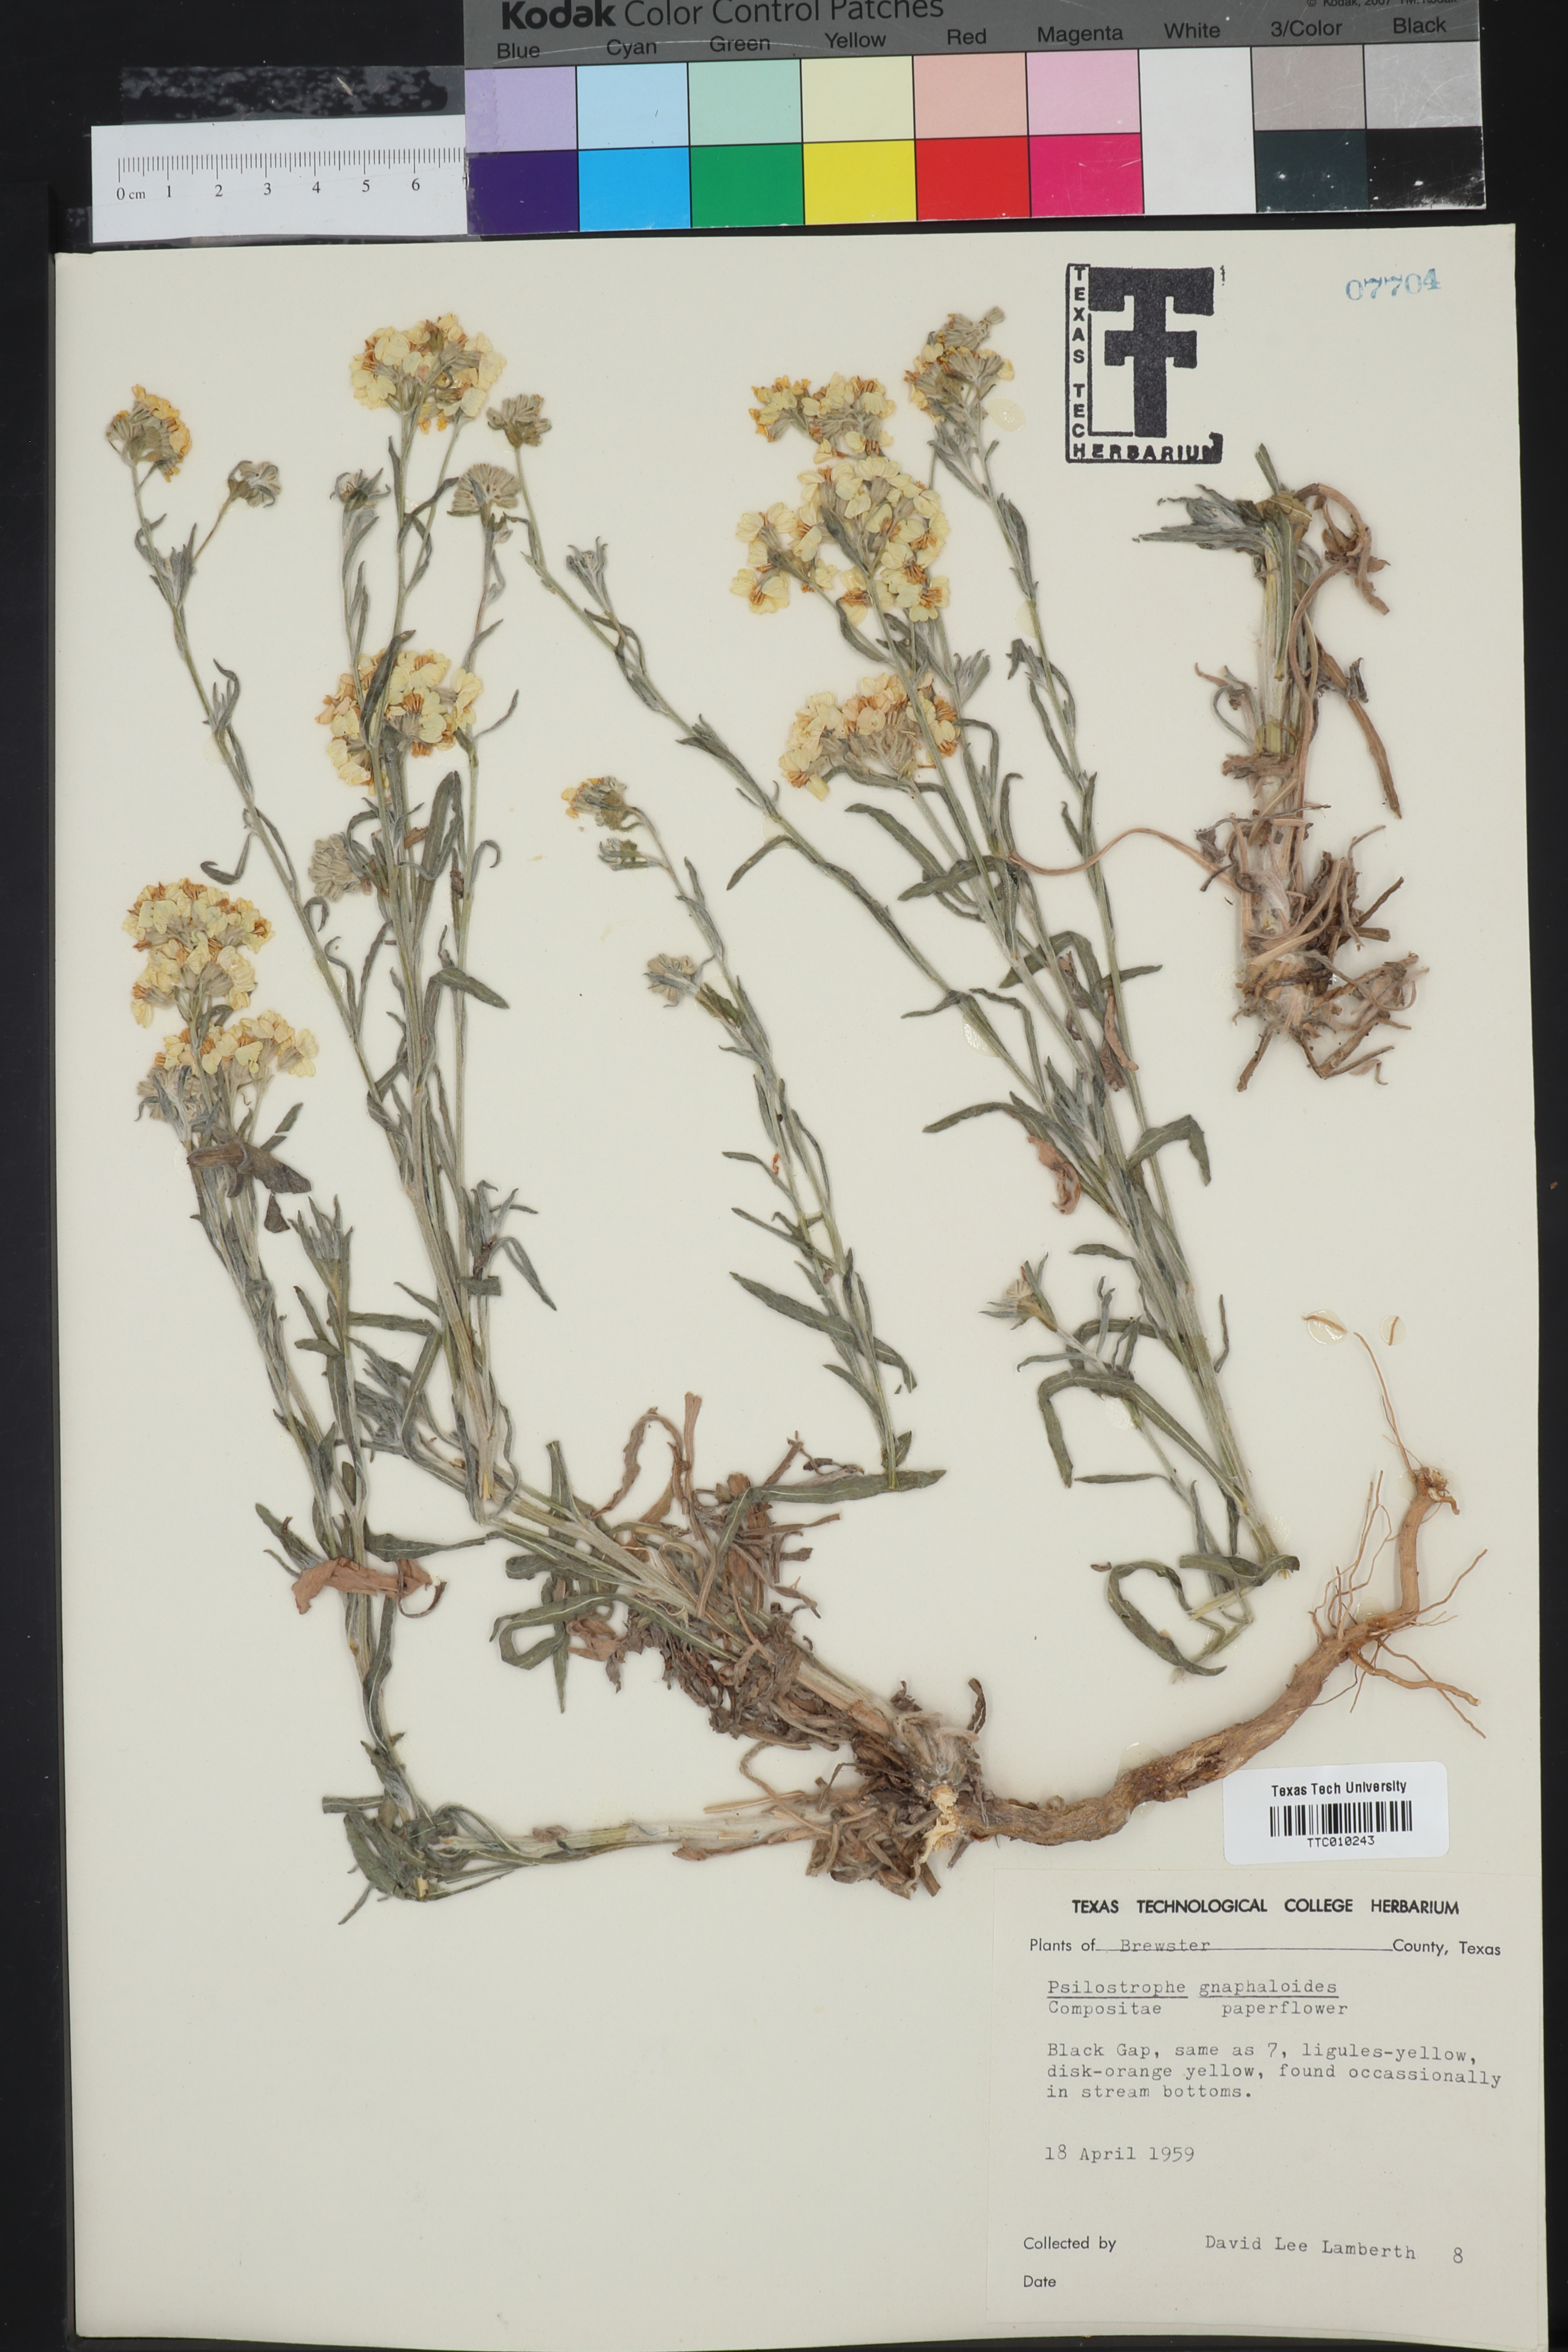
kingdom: Plantae
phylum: Tracheophyta
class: Magnoliopsida
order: Asterales
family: Asteraceae
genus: Psilostrophe
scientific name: Psilostrophe gnaphalioides
